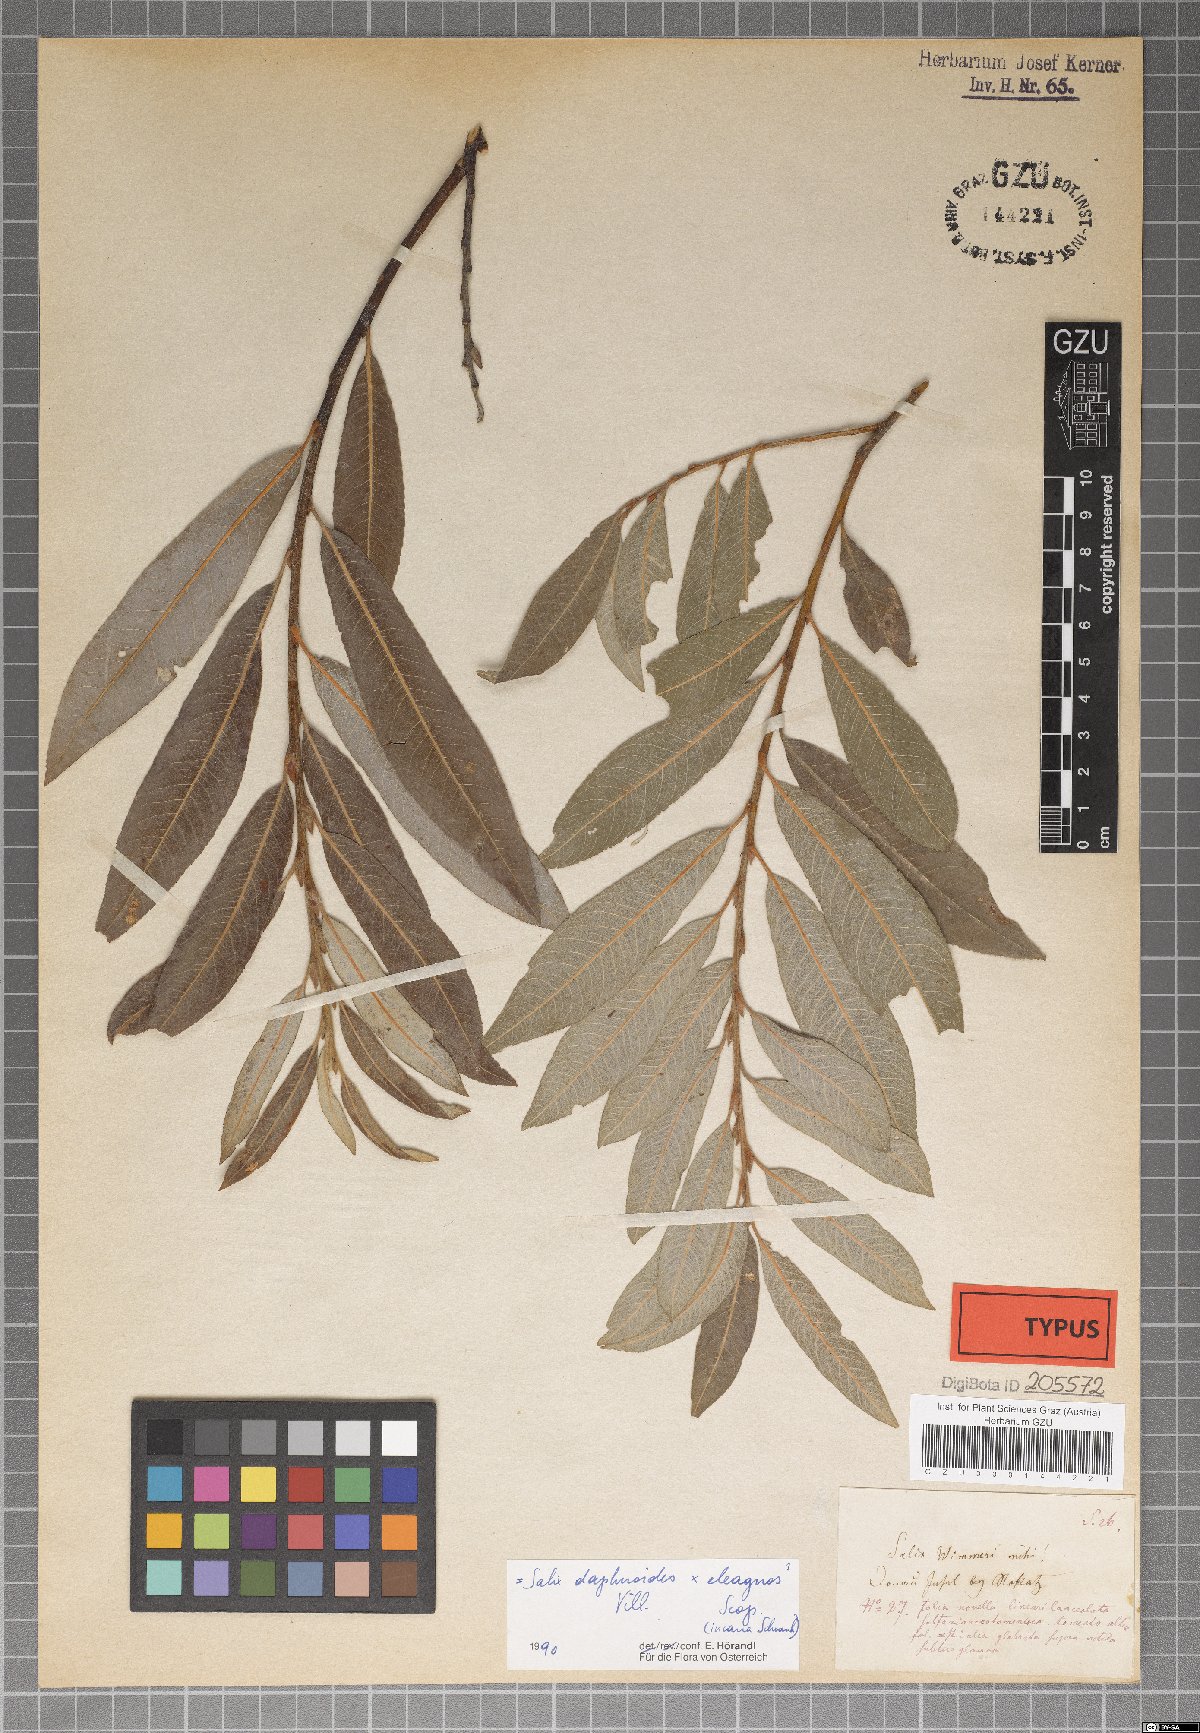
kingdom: Plantae
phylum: Tracheophyta
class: Magnoliopsida
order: Malpighiales
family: Salicaceae
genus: Salix
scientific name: Salix reuteri
